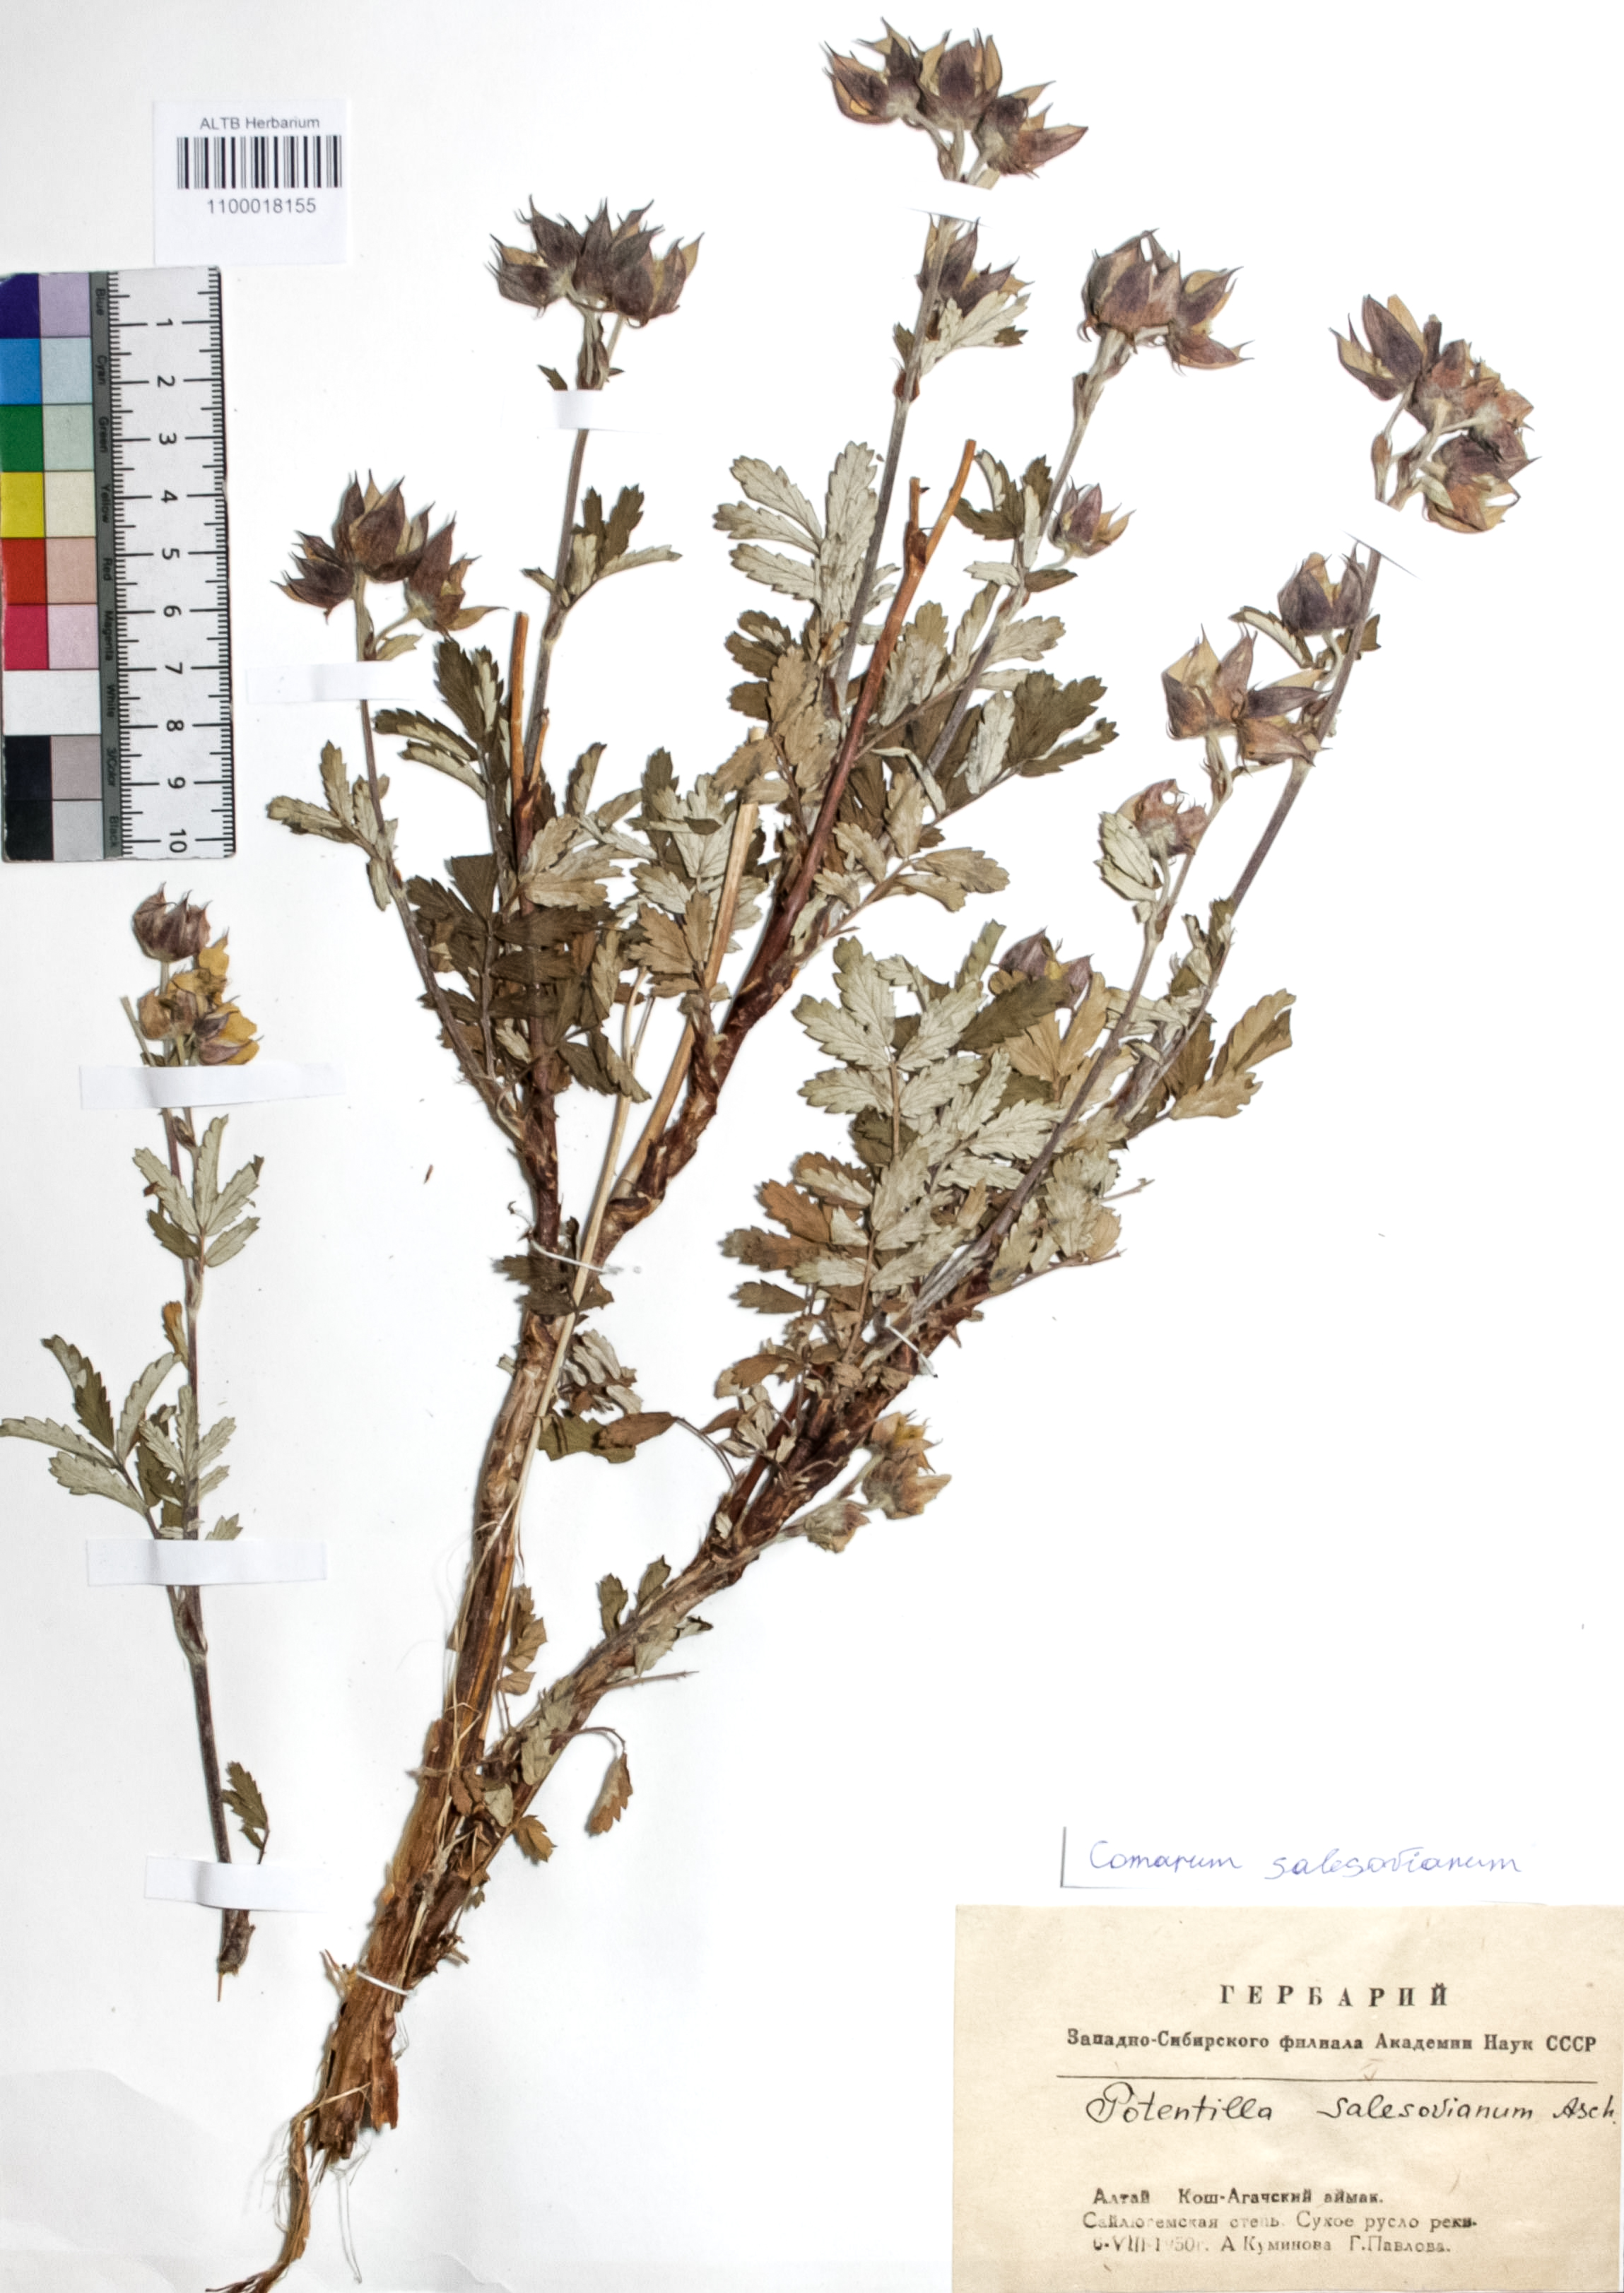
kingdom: Plantae
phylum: Tracheophyta
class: Magnoliopsida
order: Rosales
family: Rosaceae
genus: Farinopsis
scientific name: Farinopsis salesoviana
